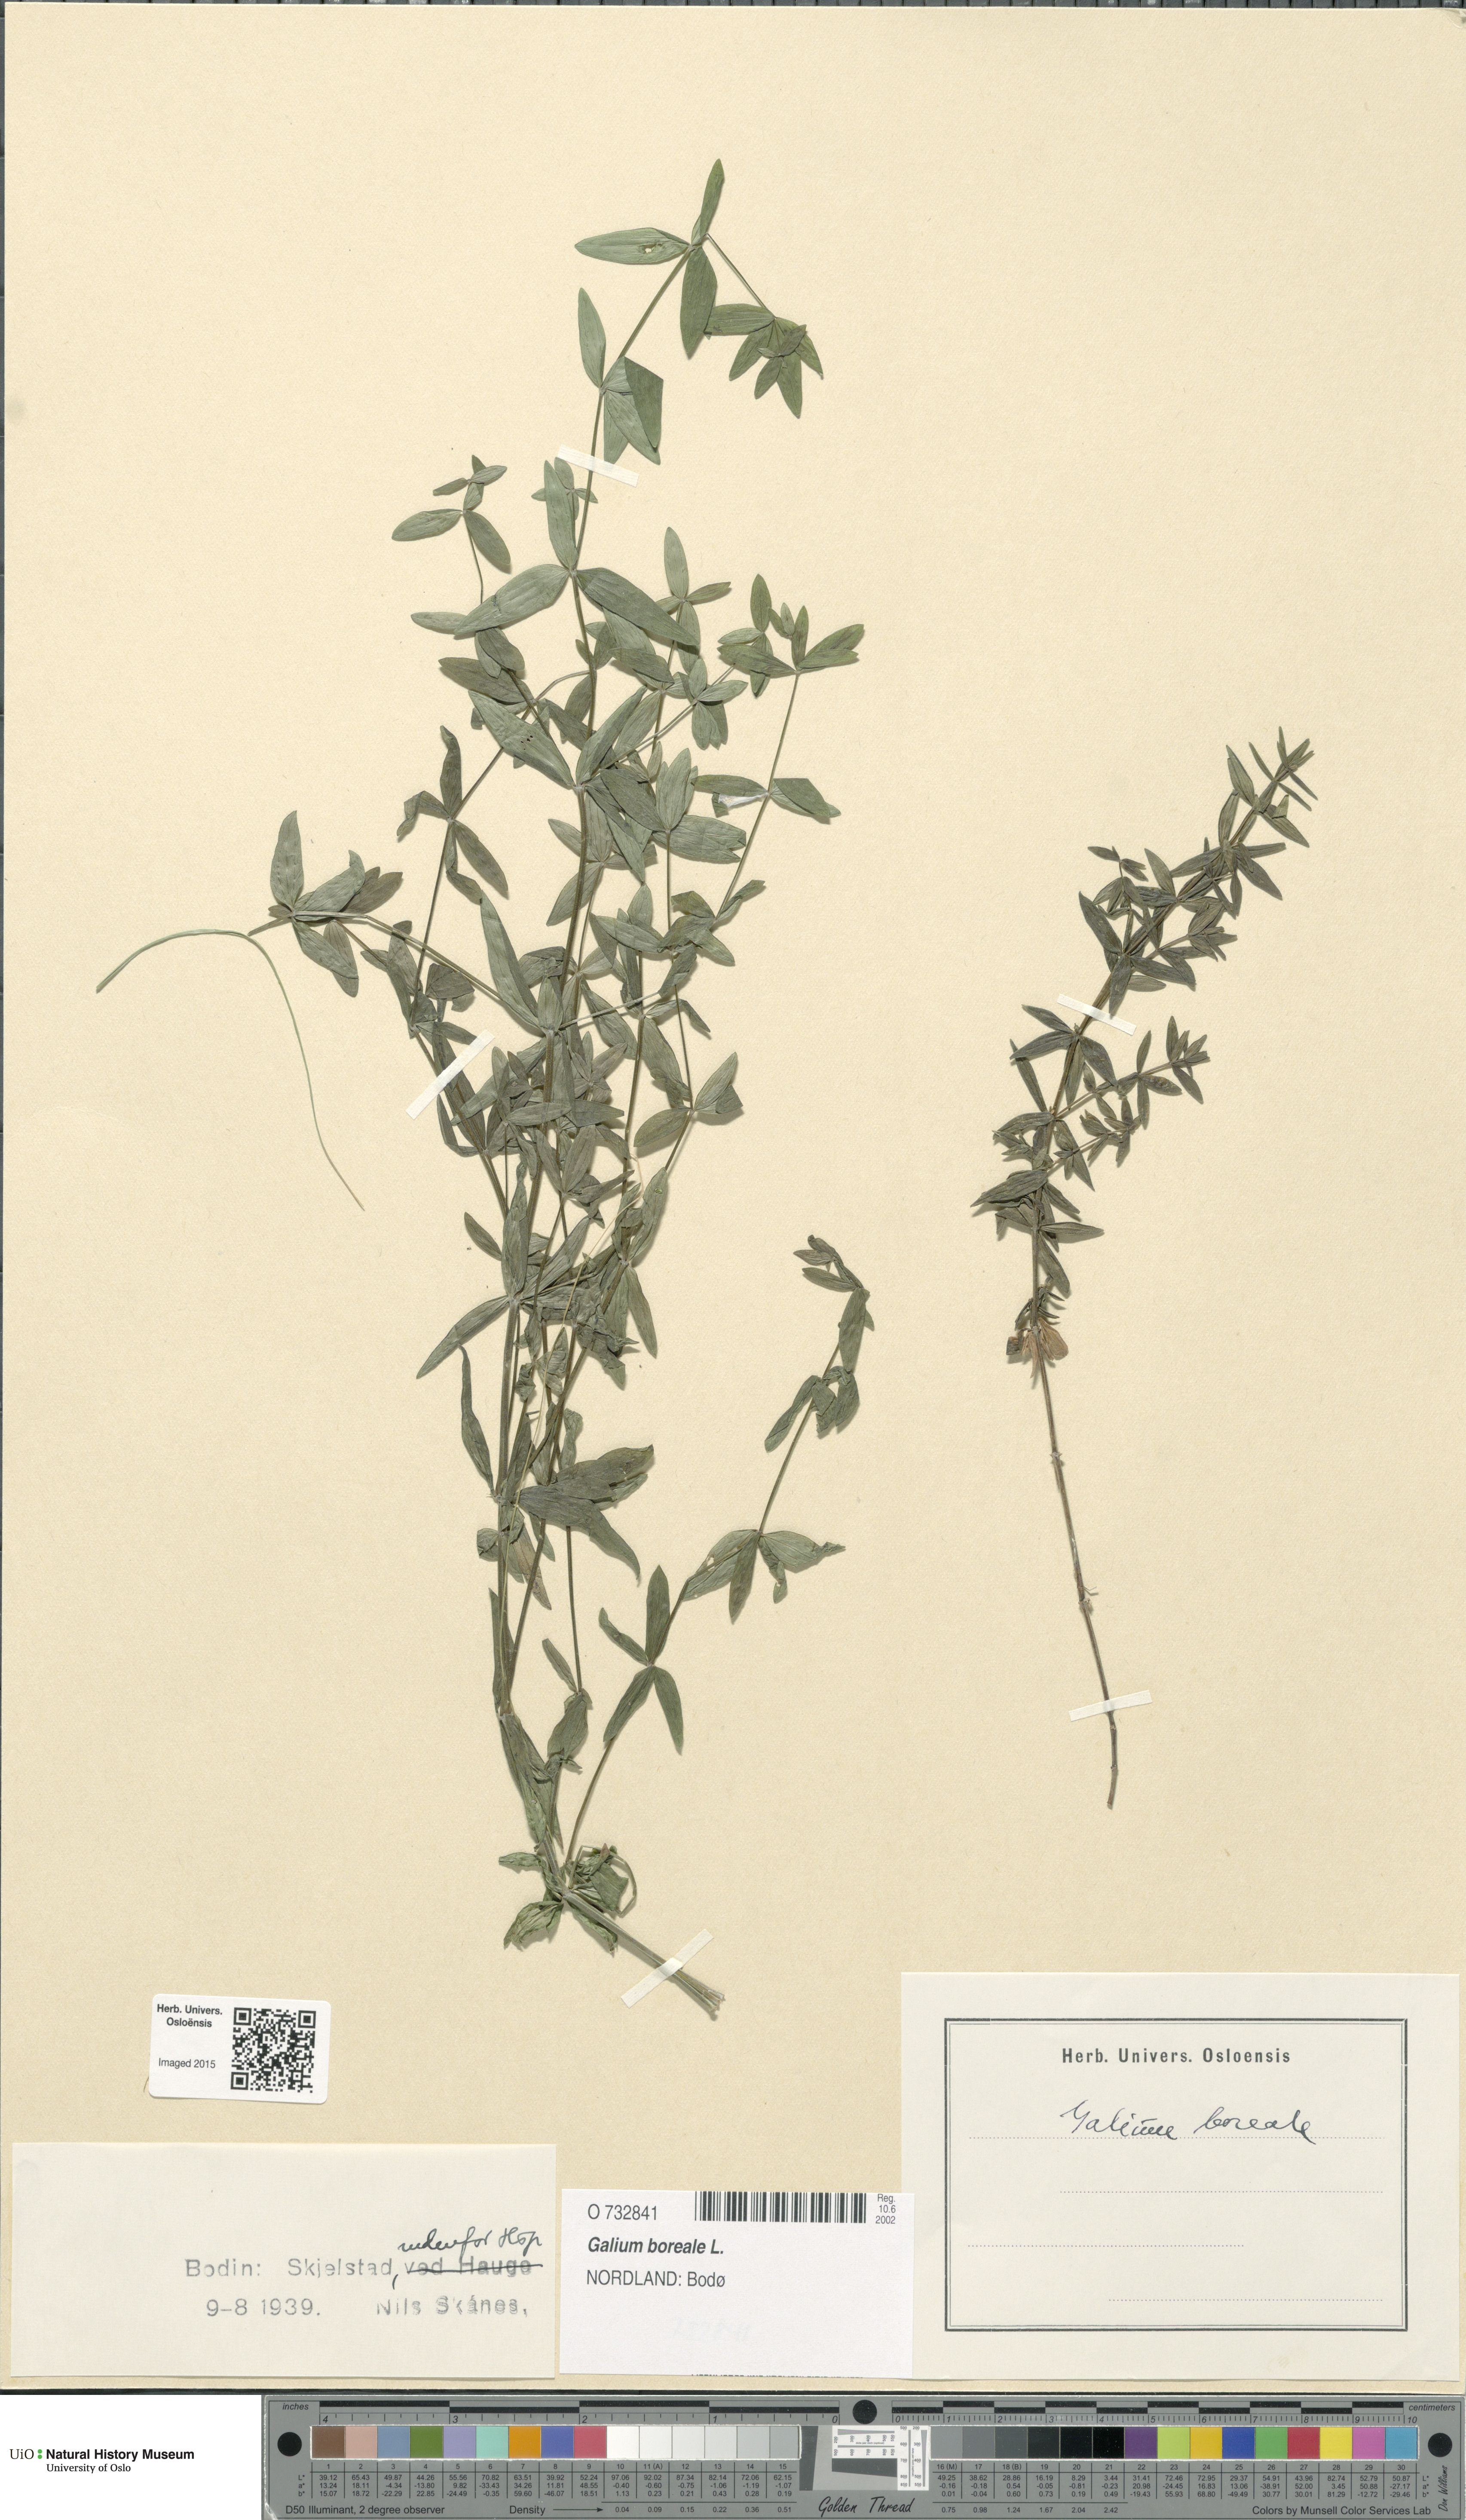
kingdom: Plantae
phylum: Tracheophyta
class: Magnoliopsida
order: Gentianales
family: Rubiaceae
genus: Galium
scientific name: Galium boreale
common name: Northern bedstraw
